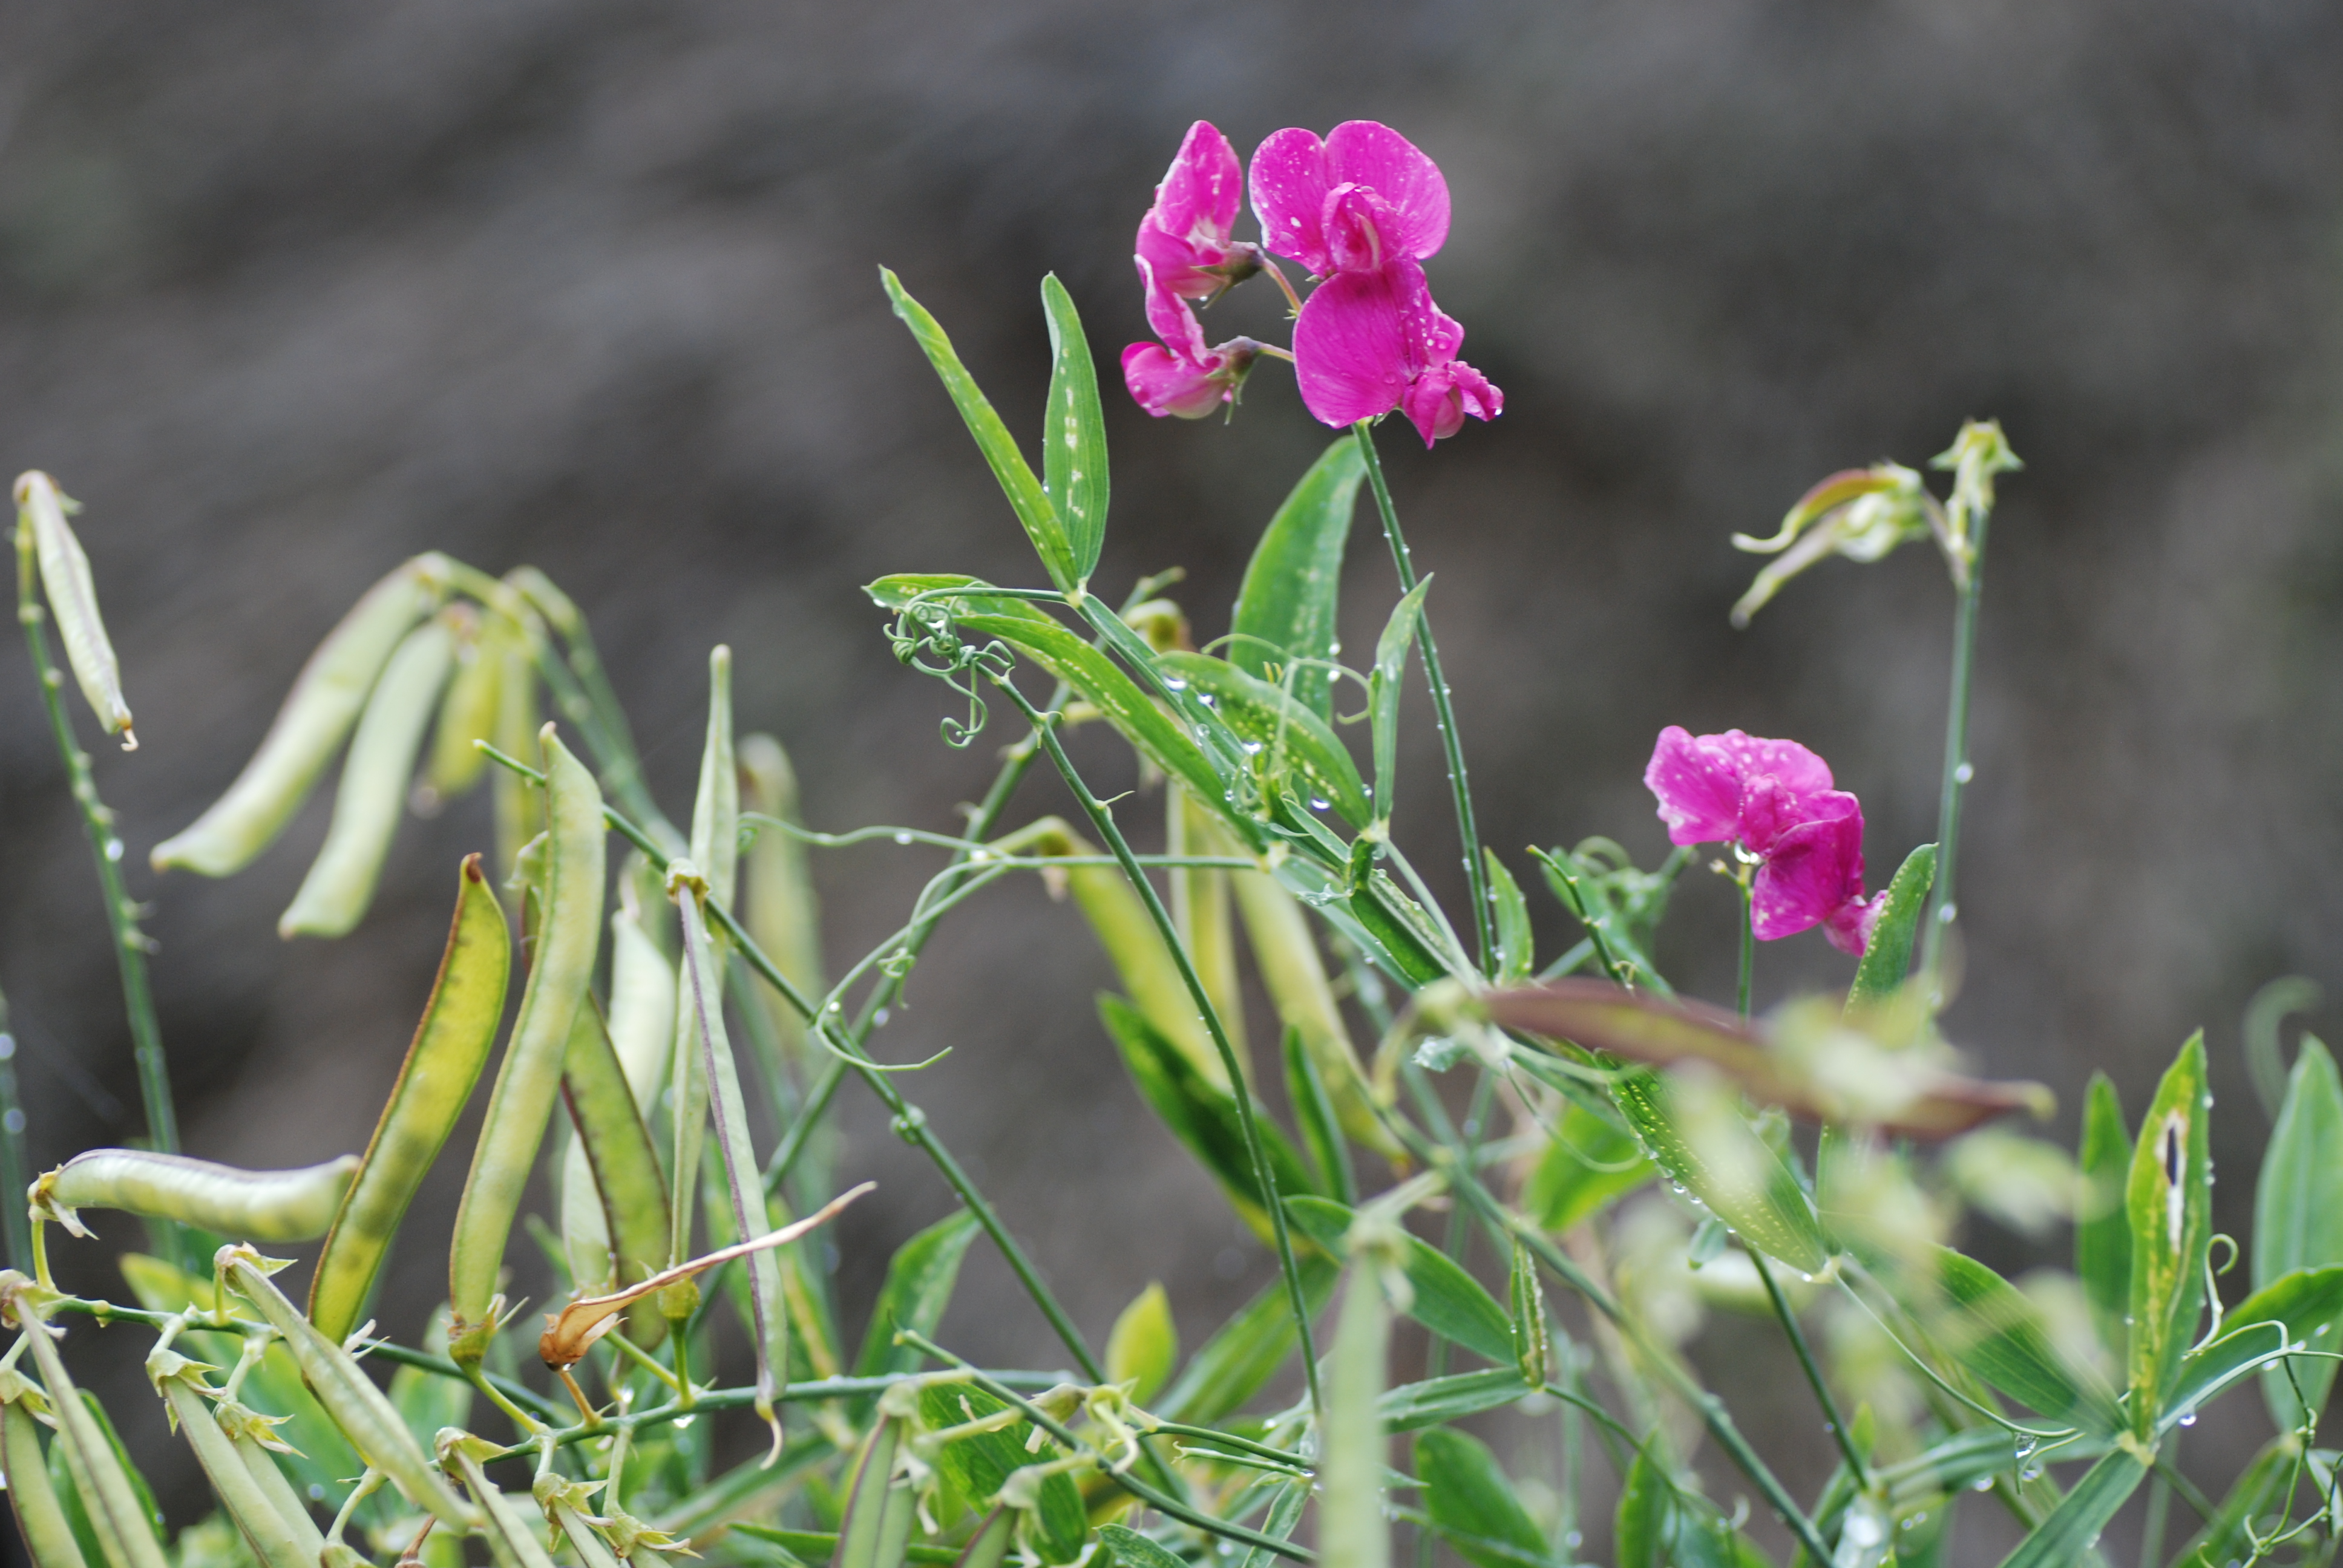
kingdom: Plantae
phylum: Tracheophyta
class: Magnoliopsida
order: Fabales
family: Fabaceae
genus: Lathyrus
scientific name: Lathyrus latifolius
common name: Perennial pea
